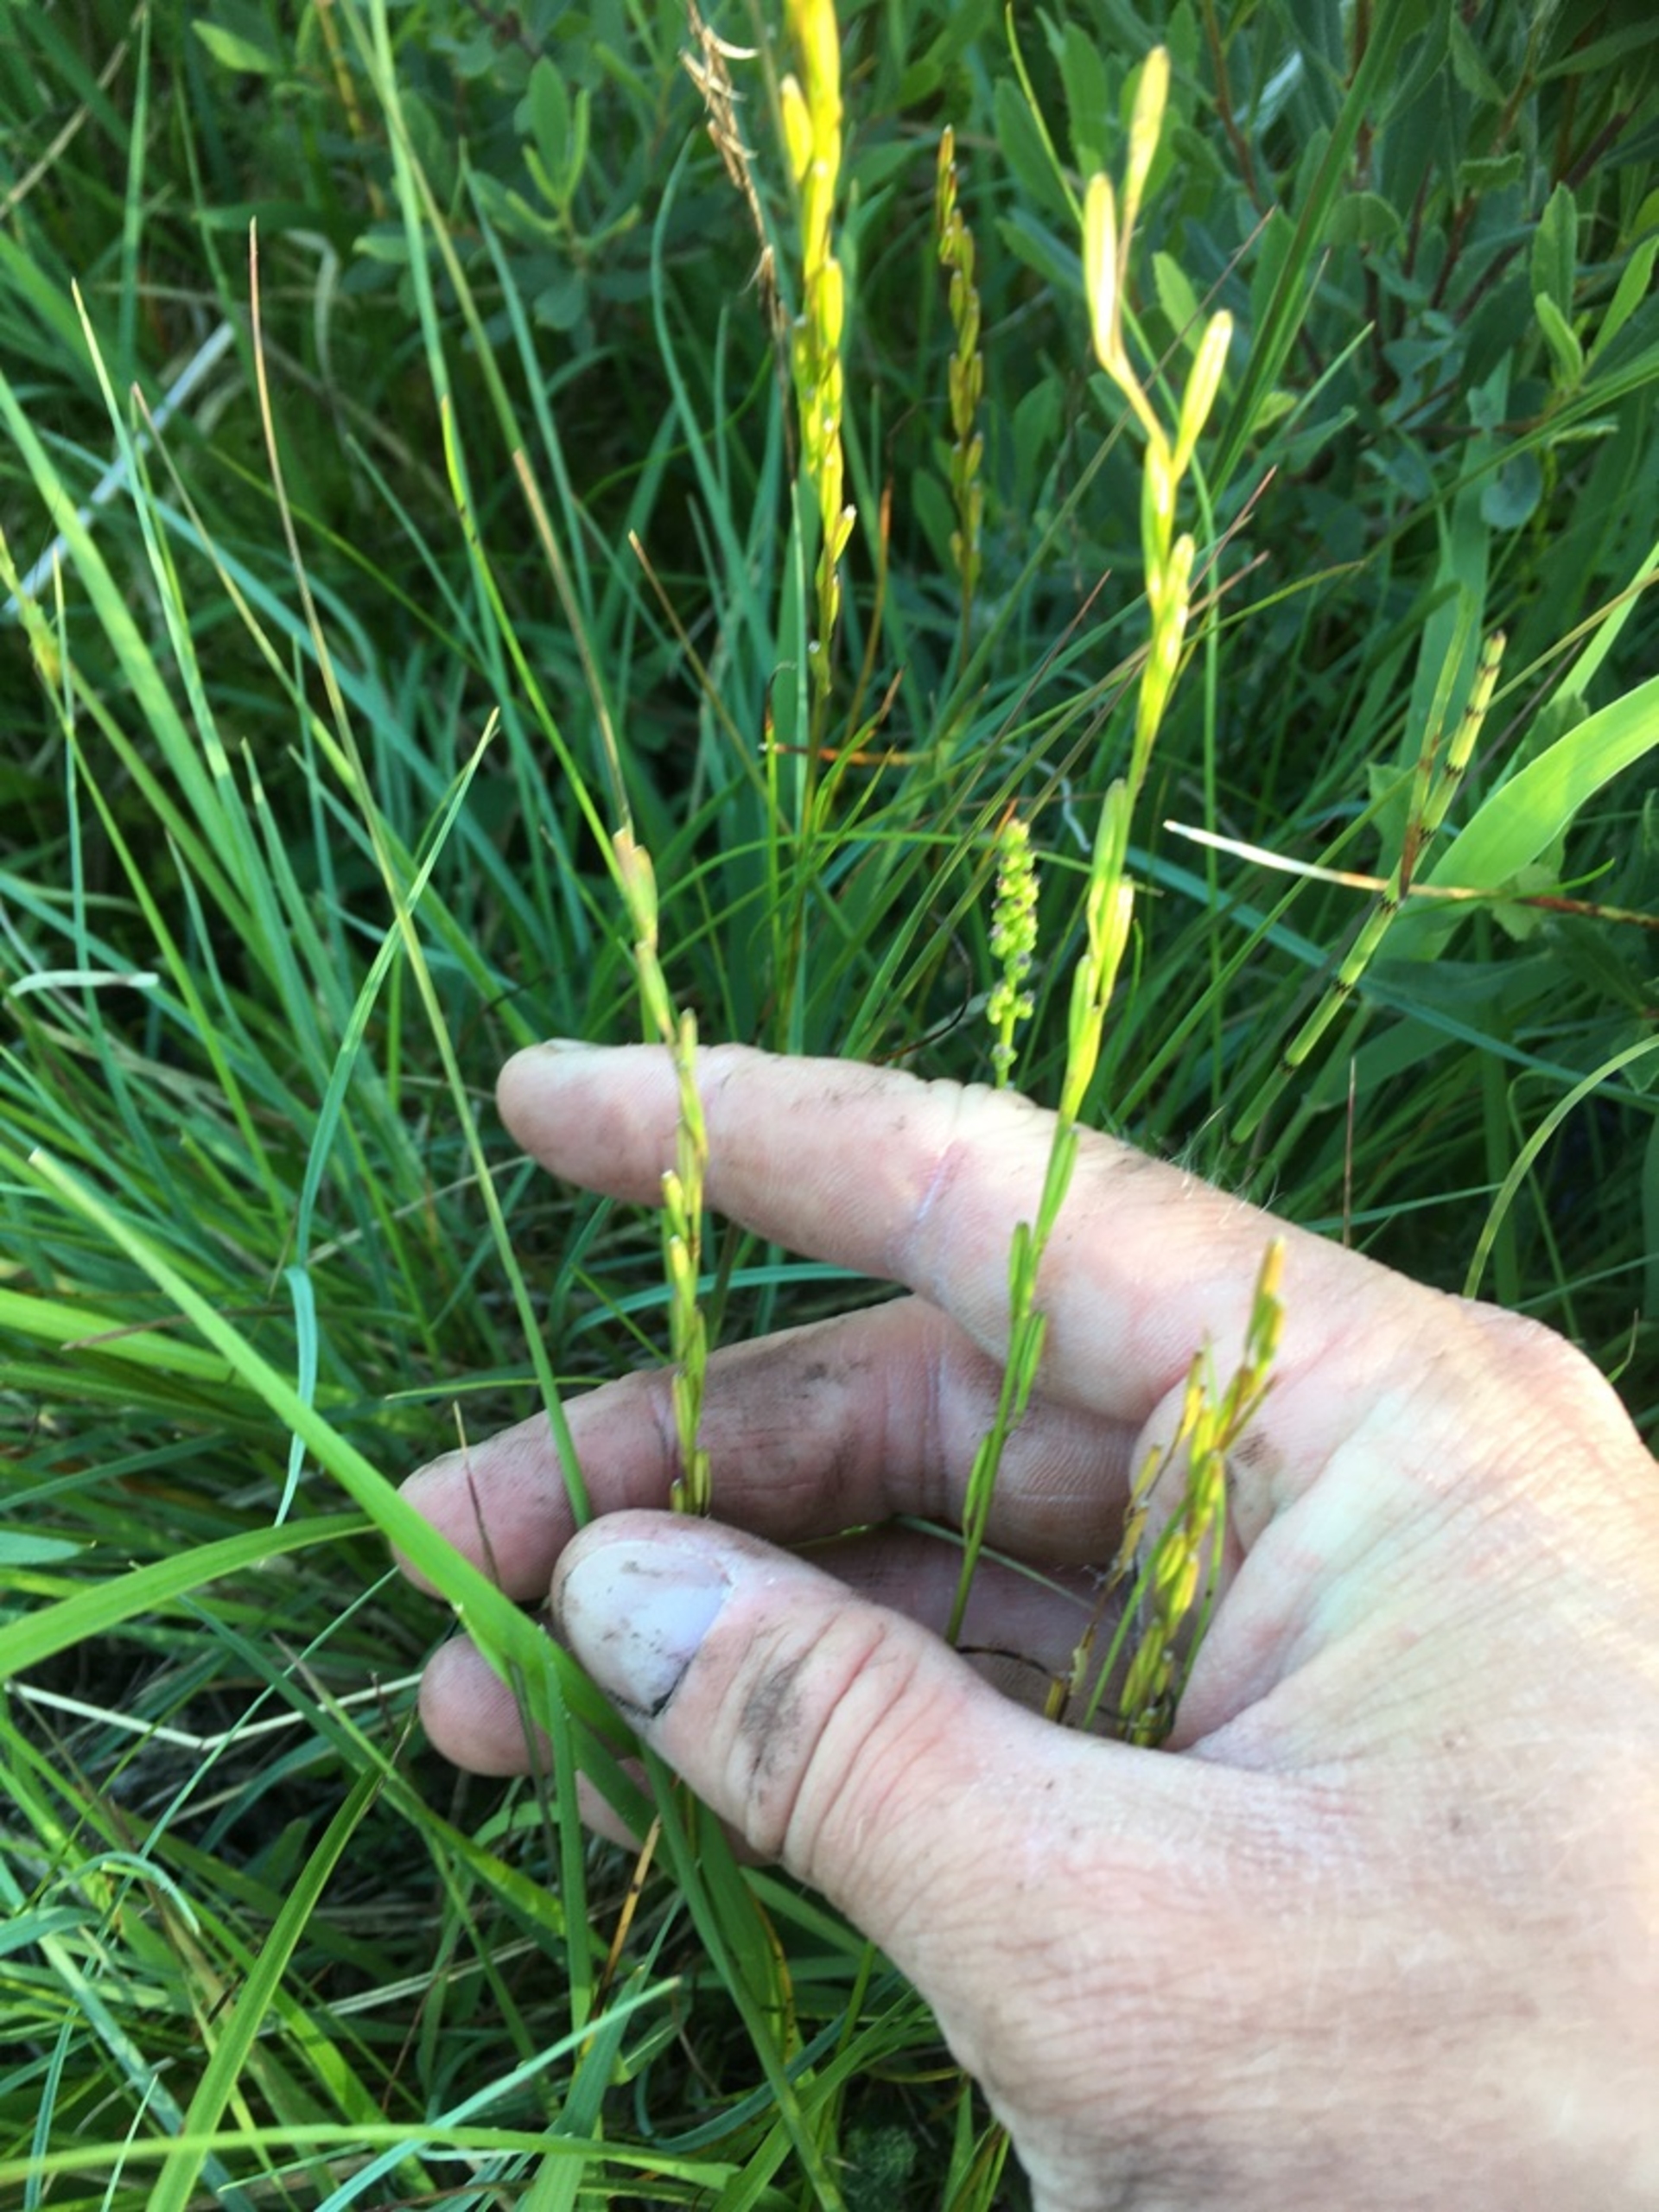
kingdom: Plantae
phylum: Tracheophyta
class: Liliopsida
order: Alismatales
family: Juncaginaceae
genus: Triglochin
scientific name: Triglochin palustris
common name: Kær-trehage
